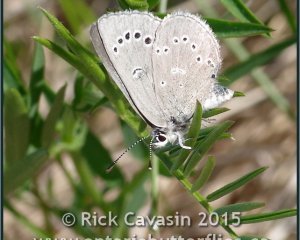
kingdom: Animalia
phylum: Arthropoda
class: Insecta
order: Lepidoptera
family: Lycaenidae
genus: Glaucopsyche
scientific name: Glaucopsyche lygdamus
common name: Silvery Blue
